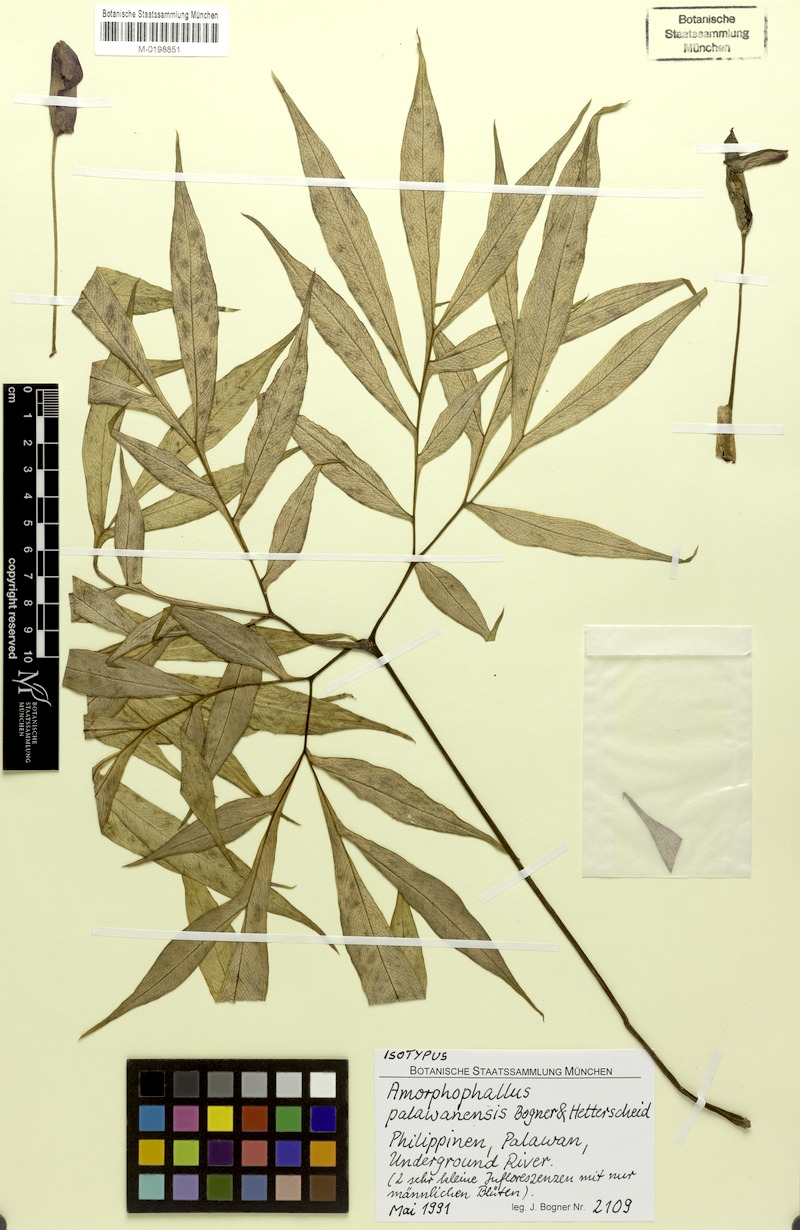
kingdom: Plantae
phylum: Tracheophyta
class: Liliopsida
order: Alismatales
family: Araceae
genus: Amorphophallus
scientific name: Amorphophallus palawanensis
